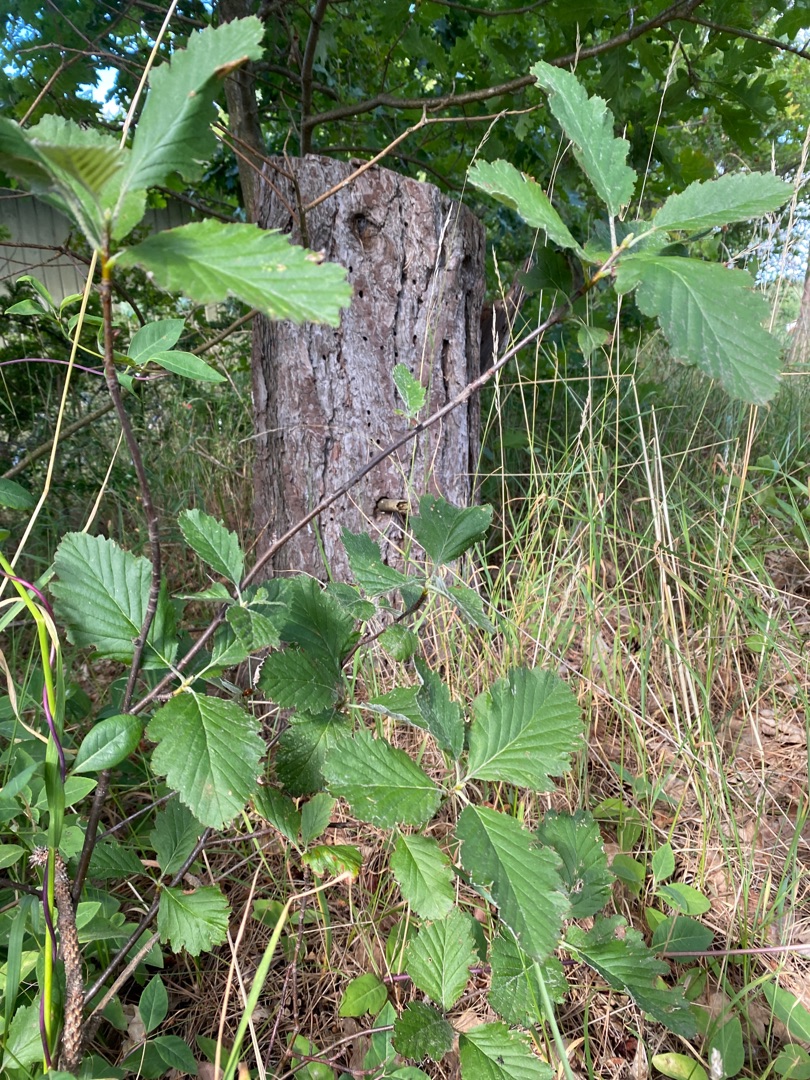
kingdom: Plantae
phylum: Tracheophyta
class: Magnoliopsida
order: Rosales
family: Rosaceae
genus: Hedlundia
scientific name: Hedlundia austriaca
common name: Østrigsk røn
